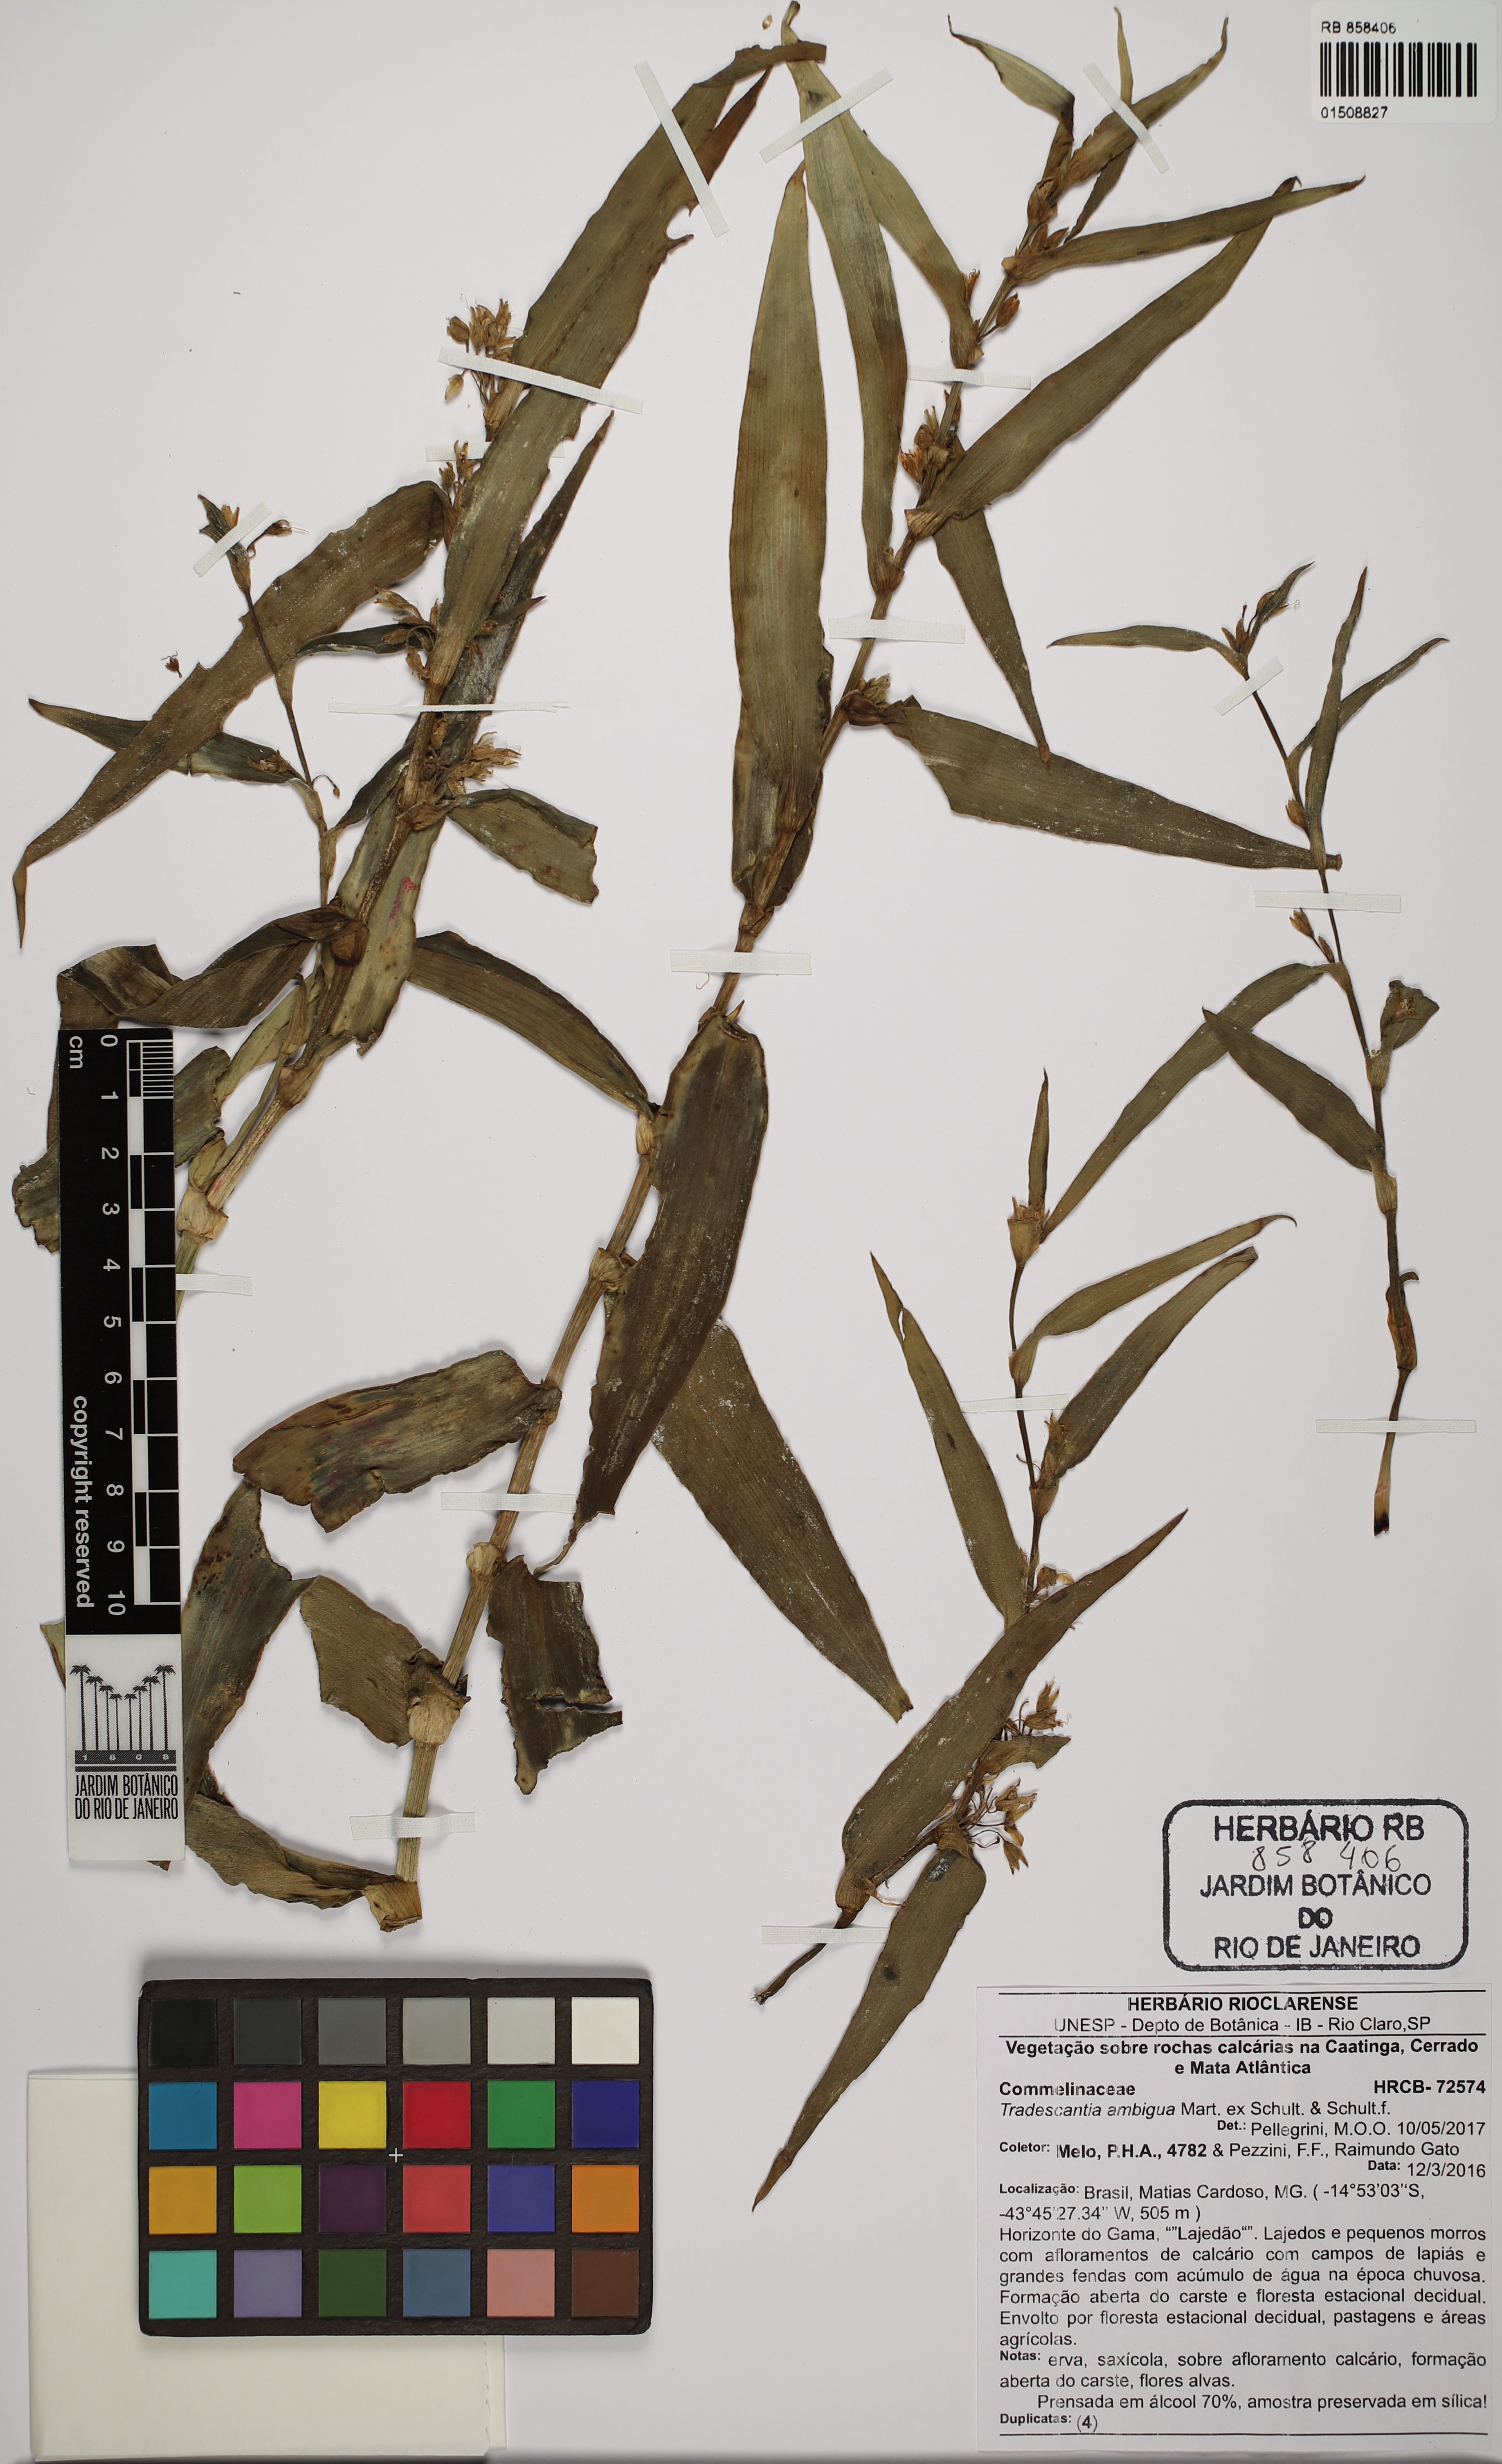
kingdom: Plantae
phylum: Tracheophyta
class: Liliopsida
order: Commelinales
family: Commelinaceae
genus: Tradescantia
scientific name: Tradescantia ambigua
